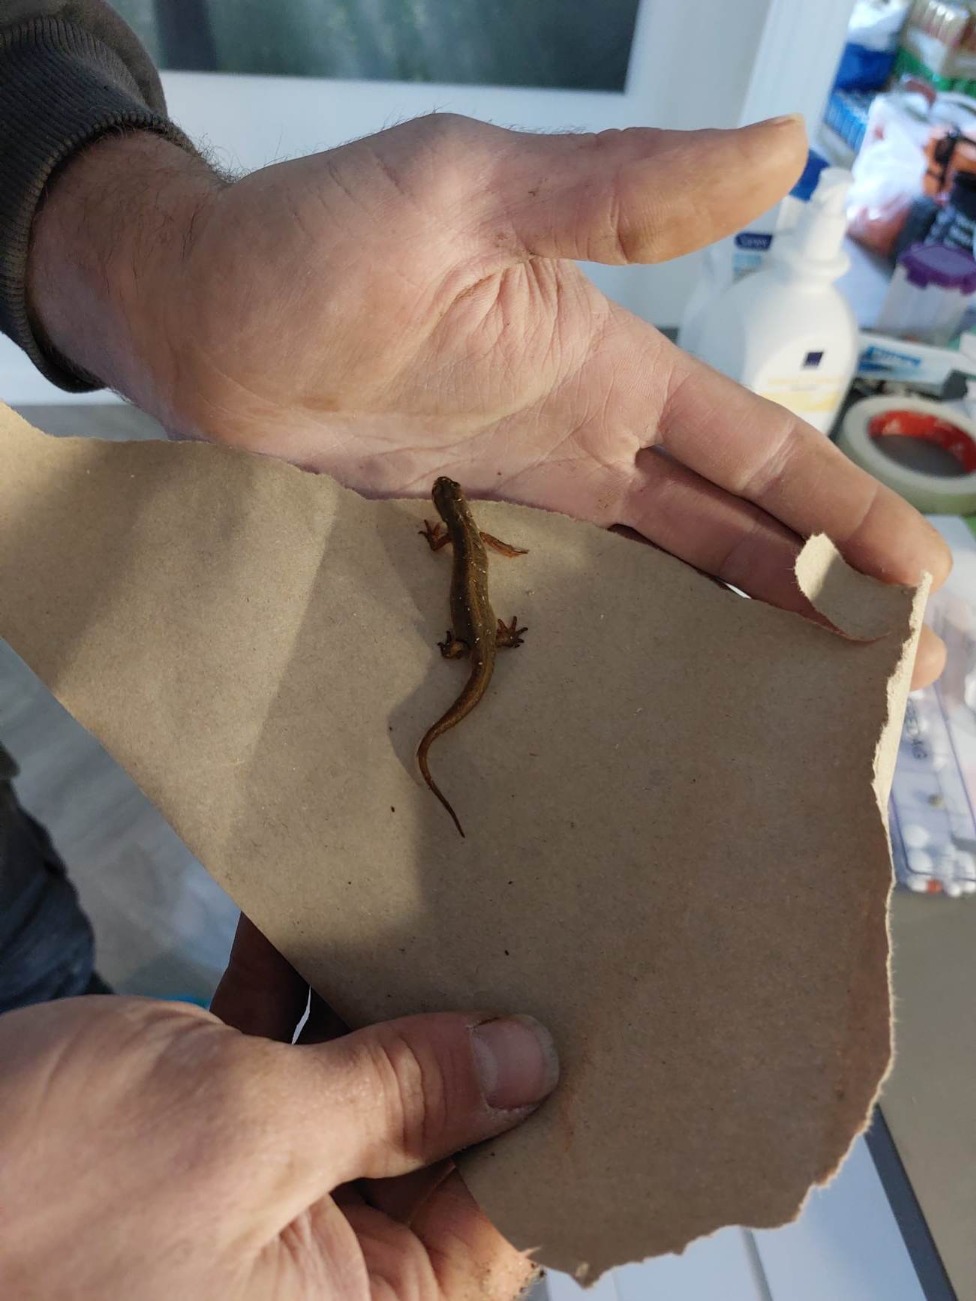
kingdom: Animalia
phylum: Chordata
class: Amphibia
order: Caudata
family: Salamandridae
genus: Lissotriton
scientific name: Lissotriton vulgaris
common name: Lille vandsalamander
